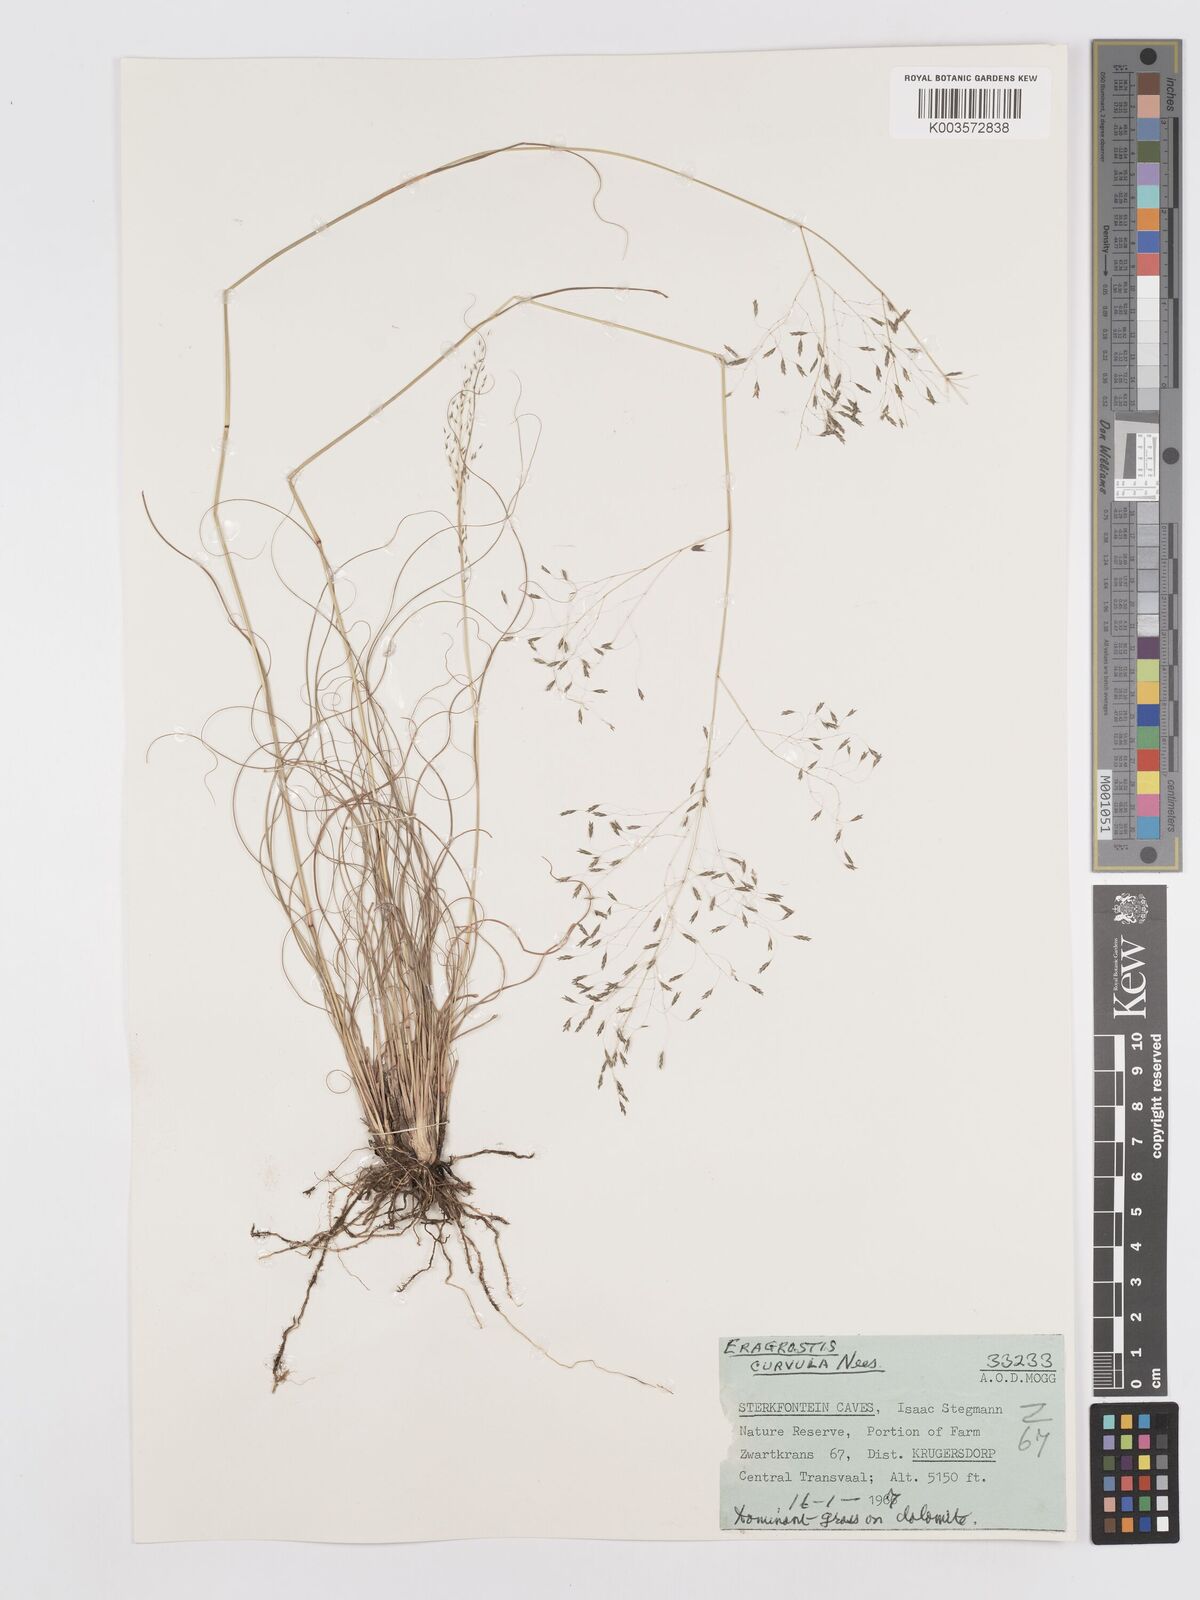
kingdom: Plantae
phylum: Tracheophyta
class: Liliopsida
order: Poales
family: Poaceae
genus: Eragrostis
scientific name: Eragrostis curvula
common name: African love-grass
